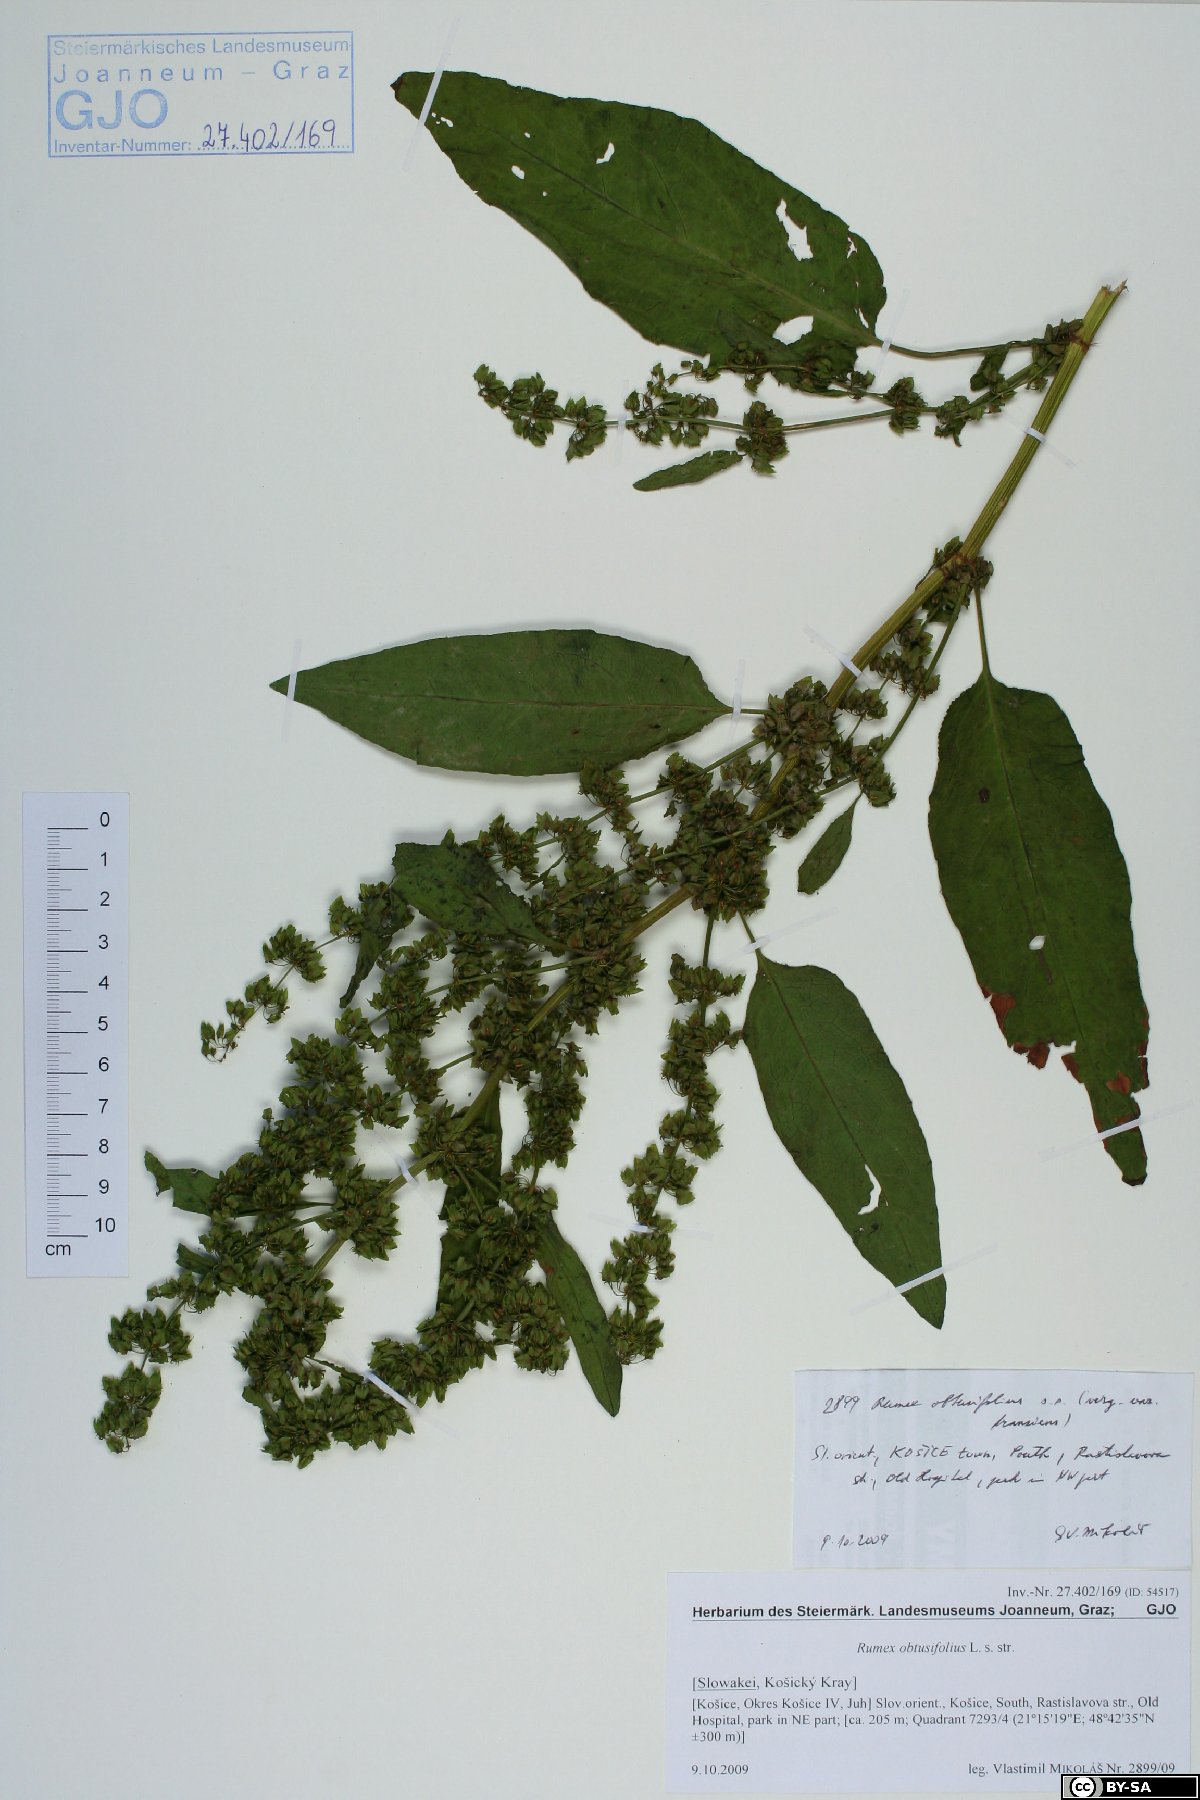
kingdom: Plantae
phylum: Tracheophyta
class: Magnoliopsida
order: Caryophyllales
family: Polygonaceae
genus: Rumex
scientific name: Rumex obtusifolius
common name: Bitter dock
